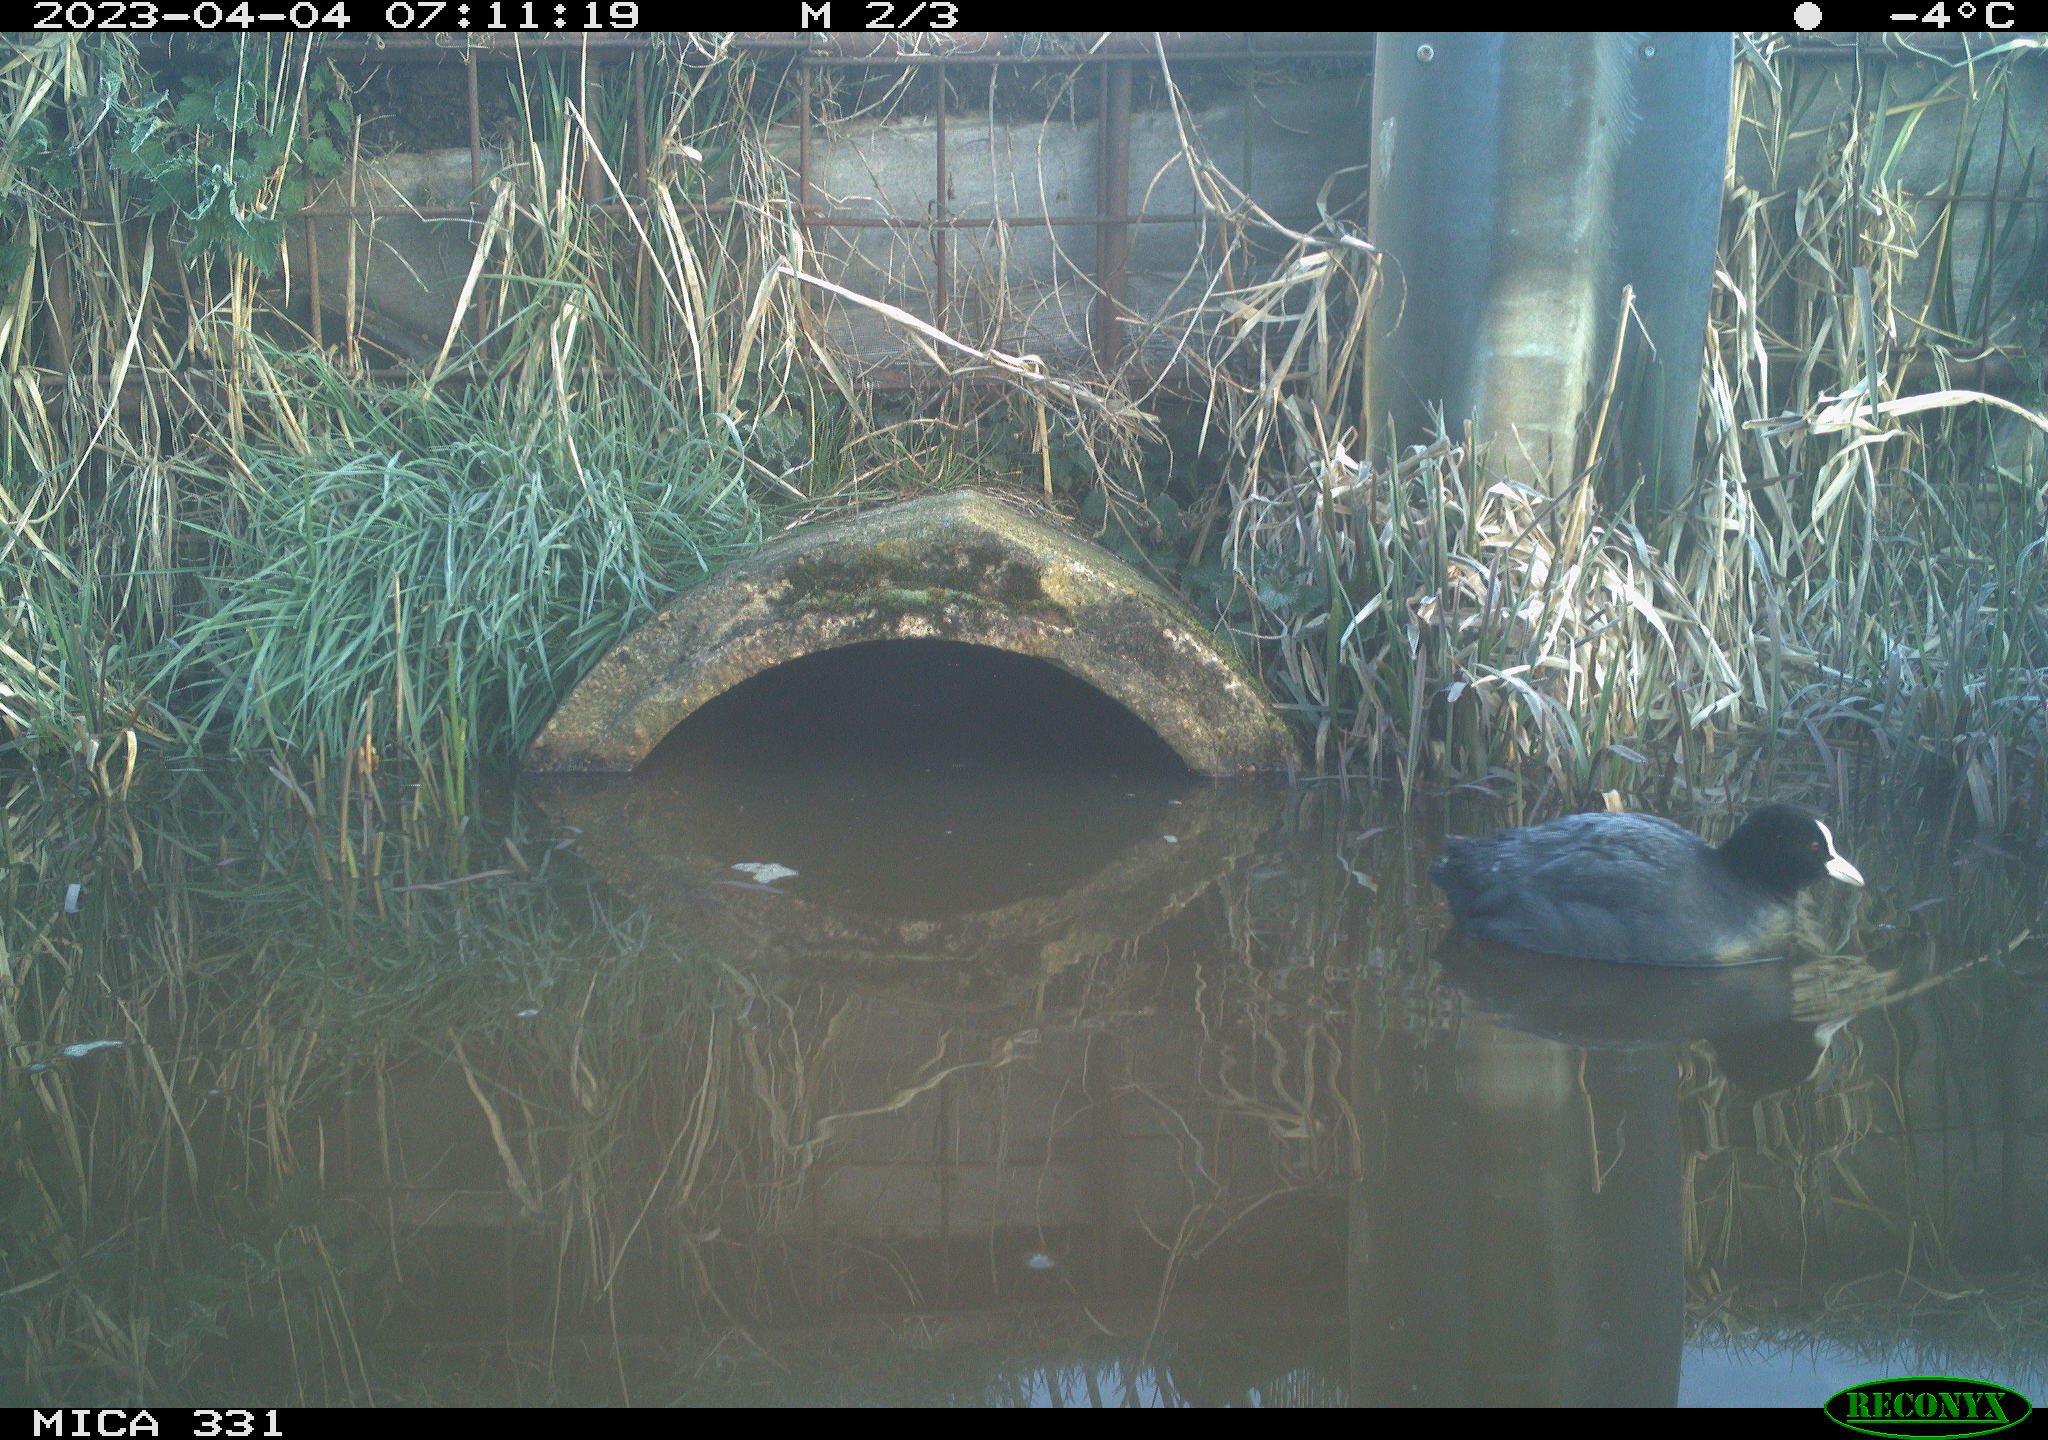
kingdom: Animalia
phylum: Chordata
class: Aves
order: Gruiformes
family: Rallidae
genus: Fulica
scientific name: Fulica atra
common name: Eurasian coot
